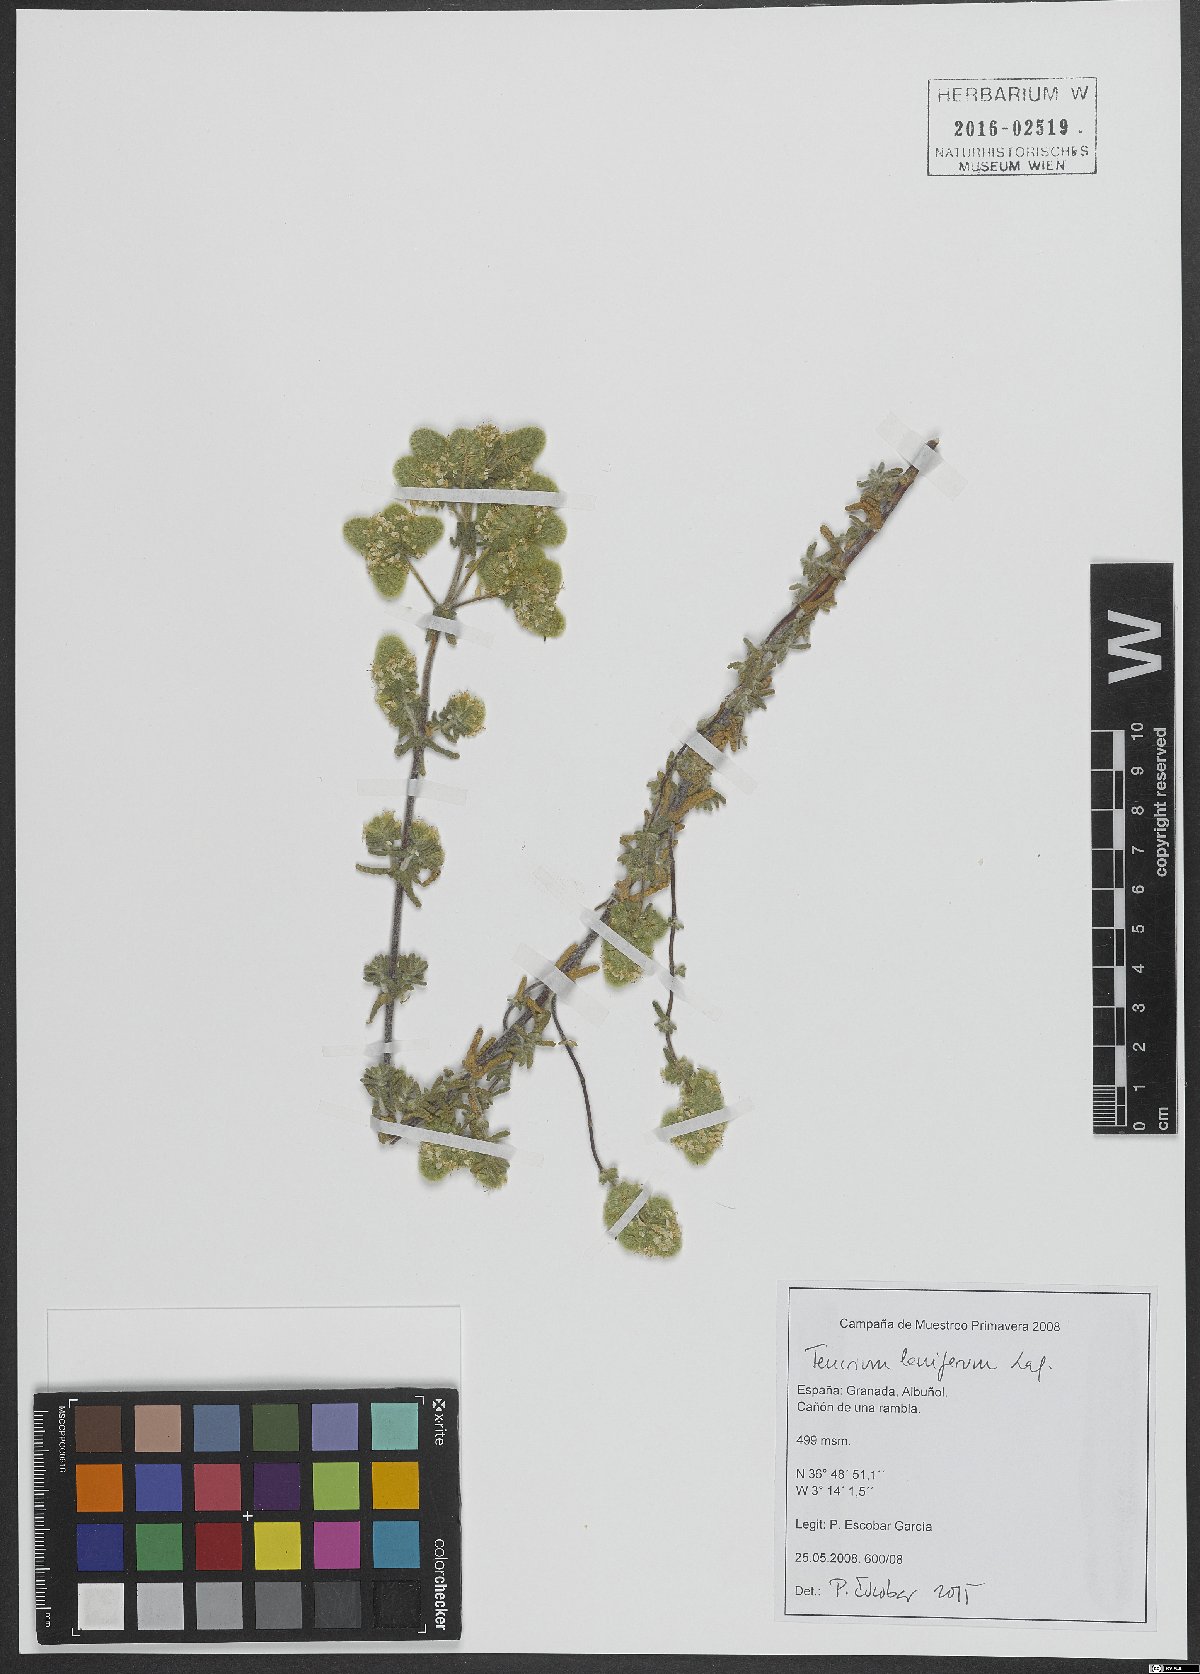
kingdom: Plantae
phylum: Tracheophyta
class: Magnoliopsida
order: Lamiales
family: Lamiaceae
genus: Teucrium
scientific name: Teucrium lanigerum
